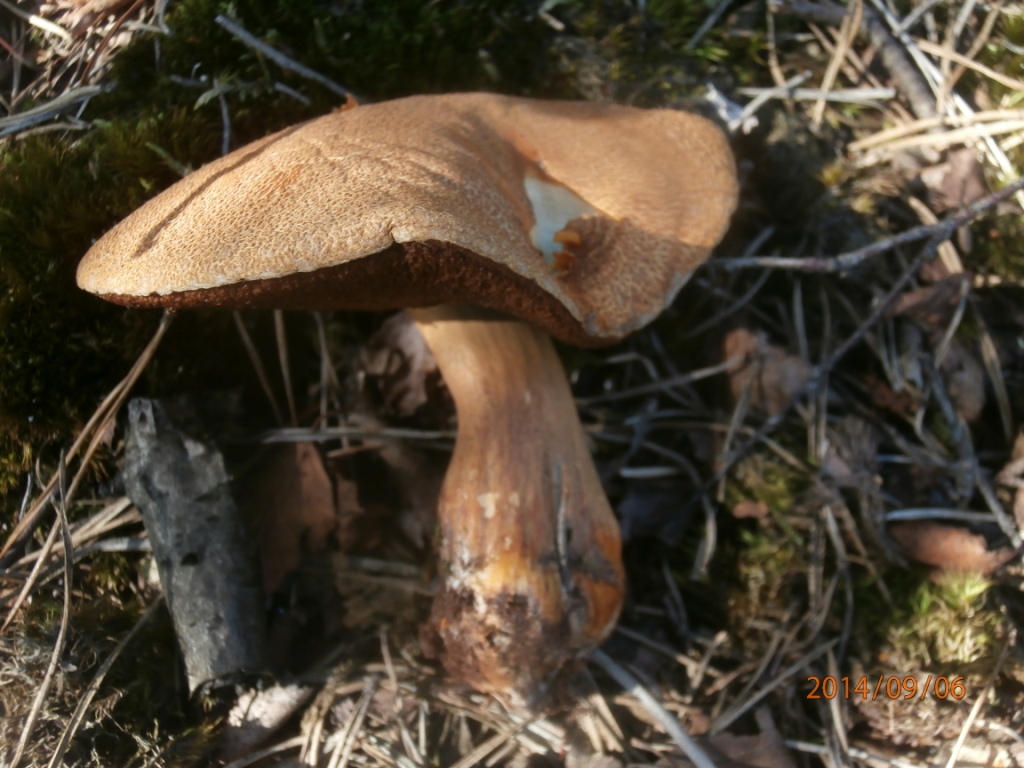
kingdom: Fungi
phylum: Basidiomycota
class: Agaricomycetes
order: Boletales
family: Suillaceae
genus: Suillus
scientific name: Suillus variegatus
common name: broget slimrørhat
